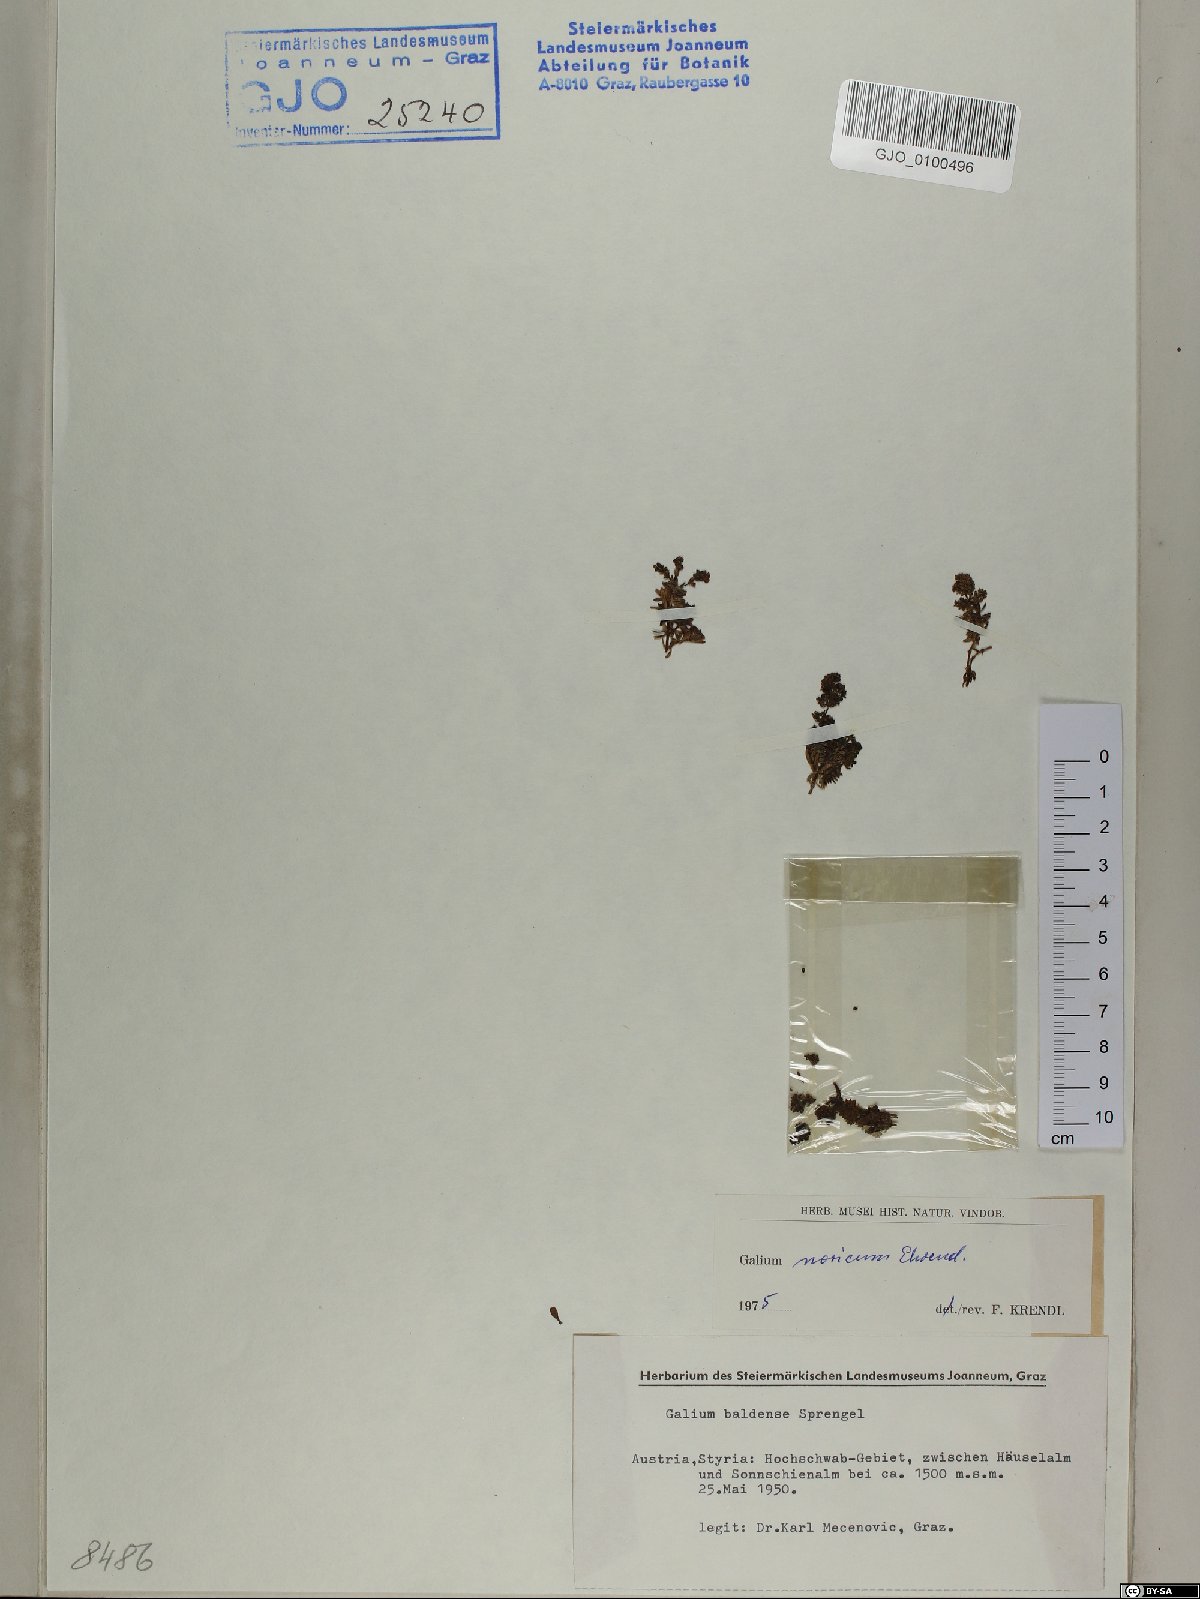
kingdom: Plantae
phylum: Tracheophyta
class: Magnoliopsida
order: Gentianales
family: Rubiaceae
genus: Galium
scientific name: Galium noricum
